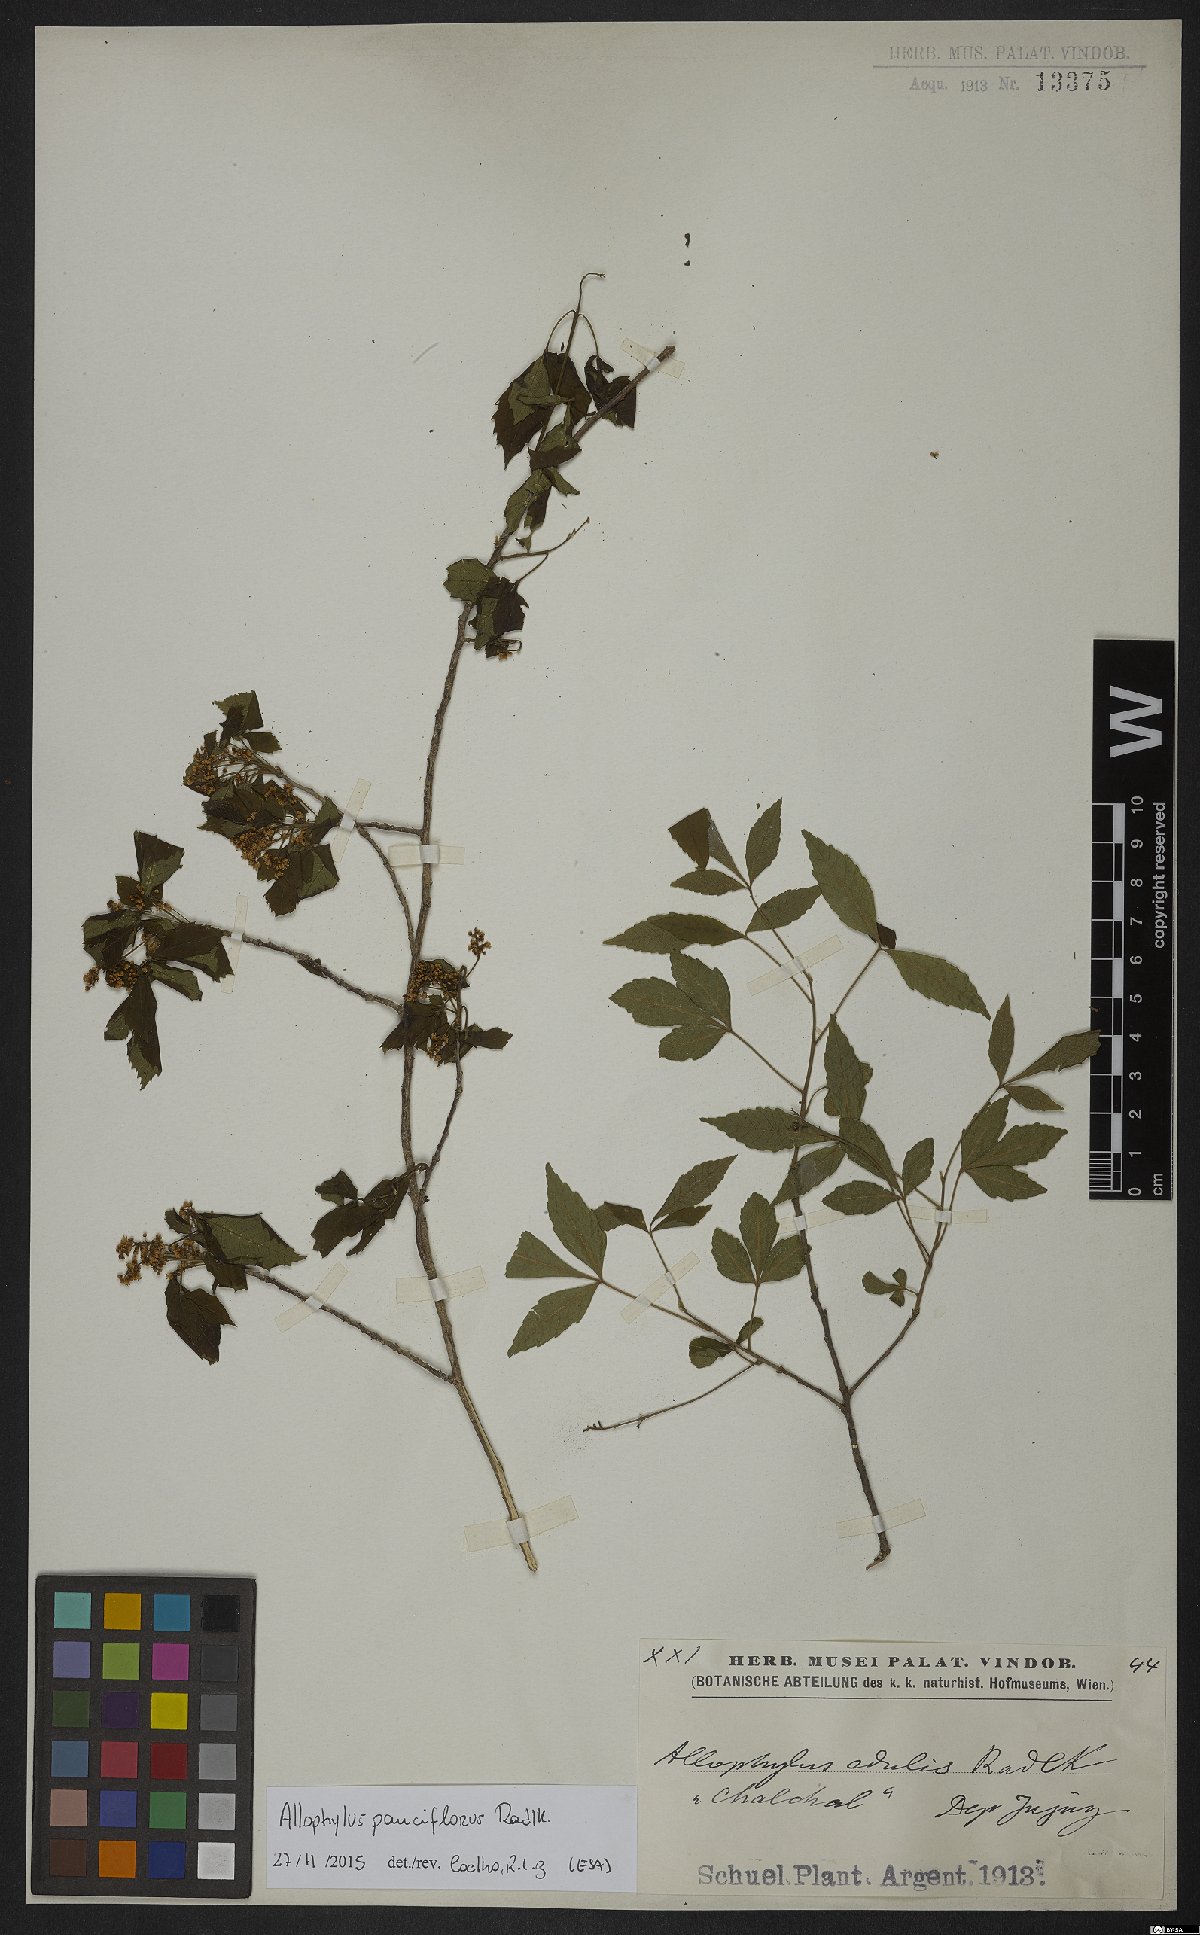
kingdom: Plantae
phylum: Tracheophyta
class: Magnoliopsida
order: Sapindales
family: Sapindaceae
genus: Allophylus
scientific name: Allophylus edulis
